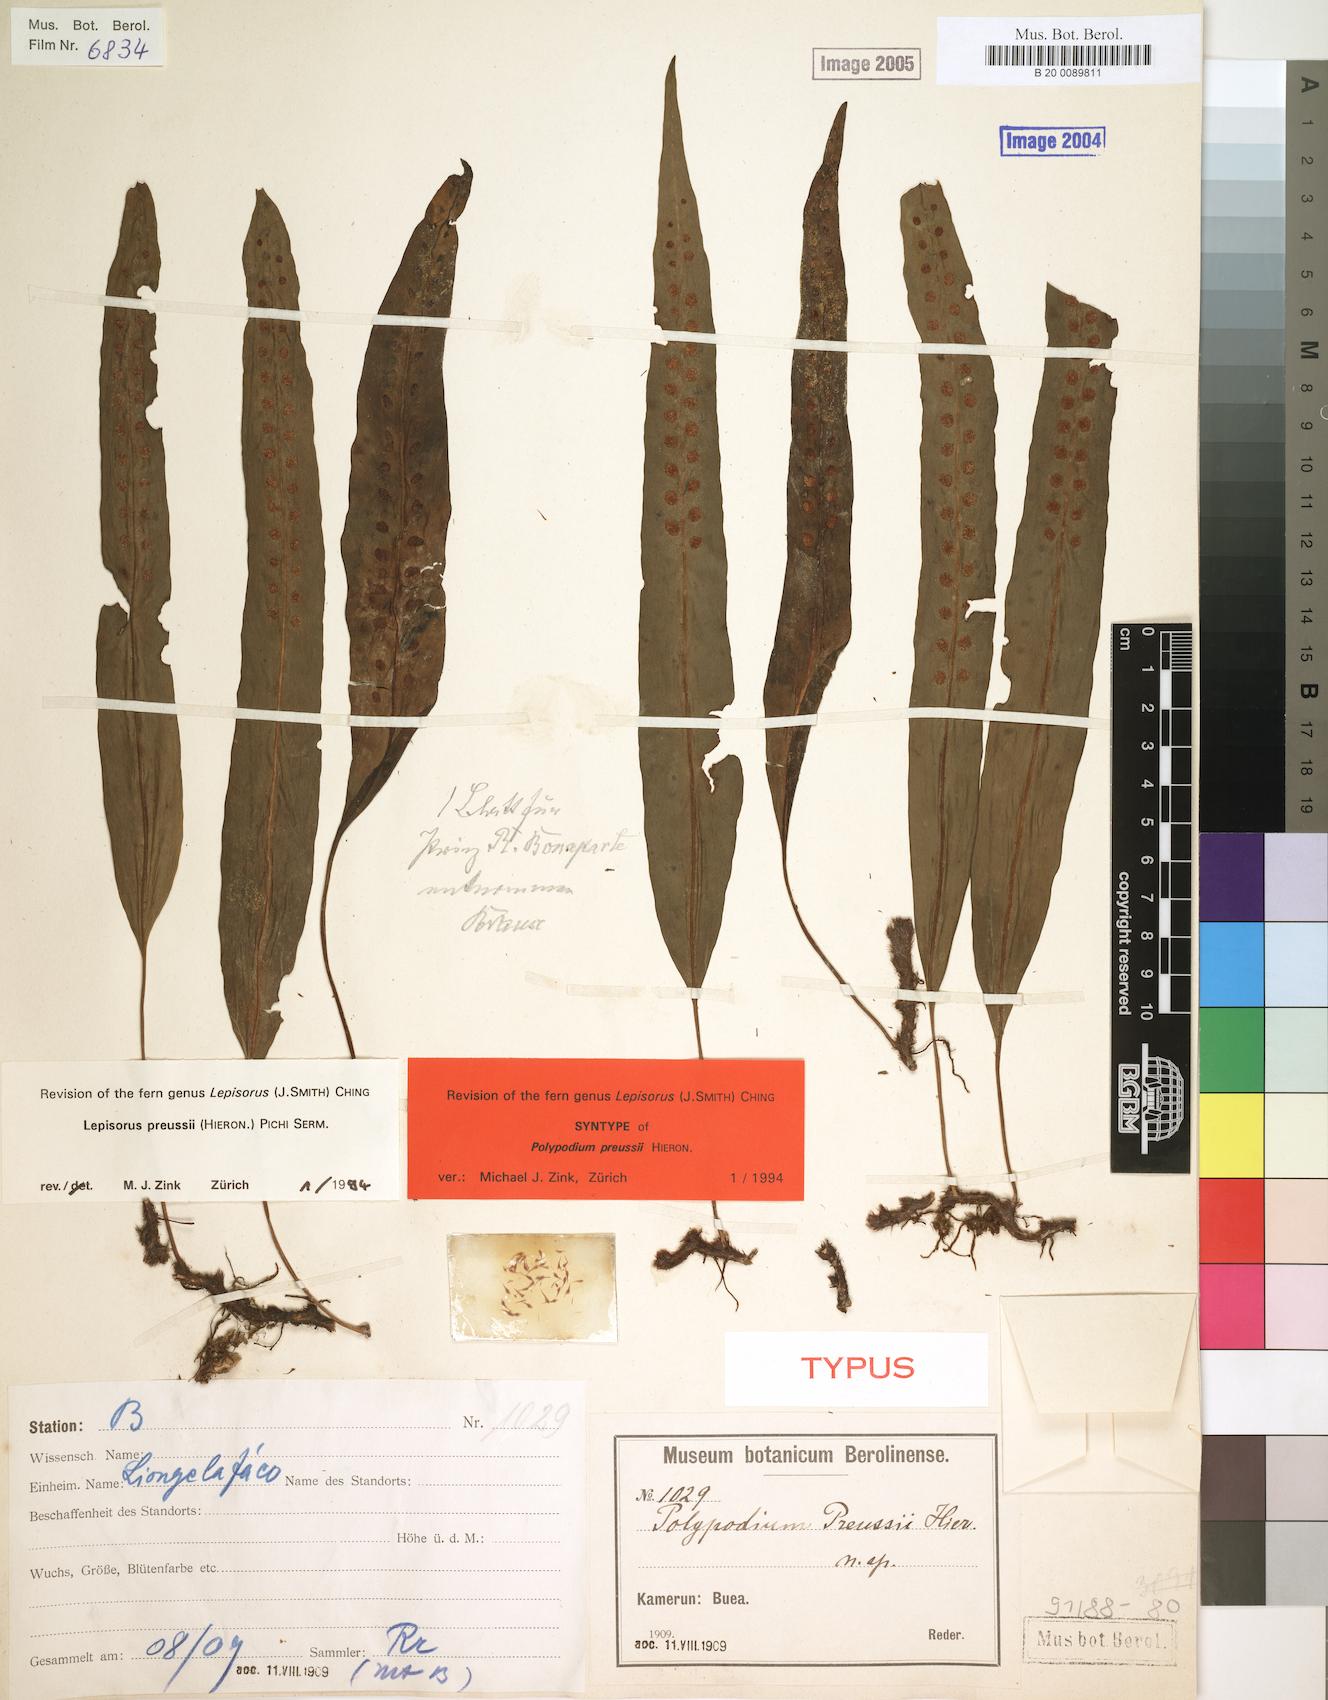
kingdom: Plantae
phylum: Tracheophyta
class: Polypodiopsida
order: Polypodiales
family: Polypodiaceae
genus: Lepisorus
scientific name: Lepisorus excavatus
